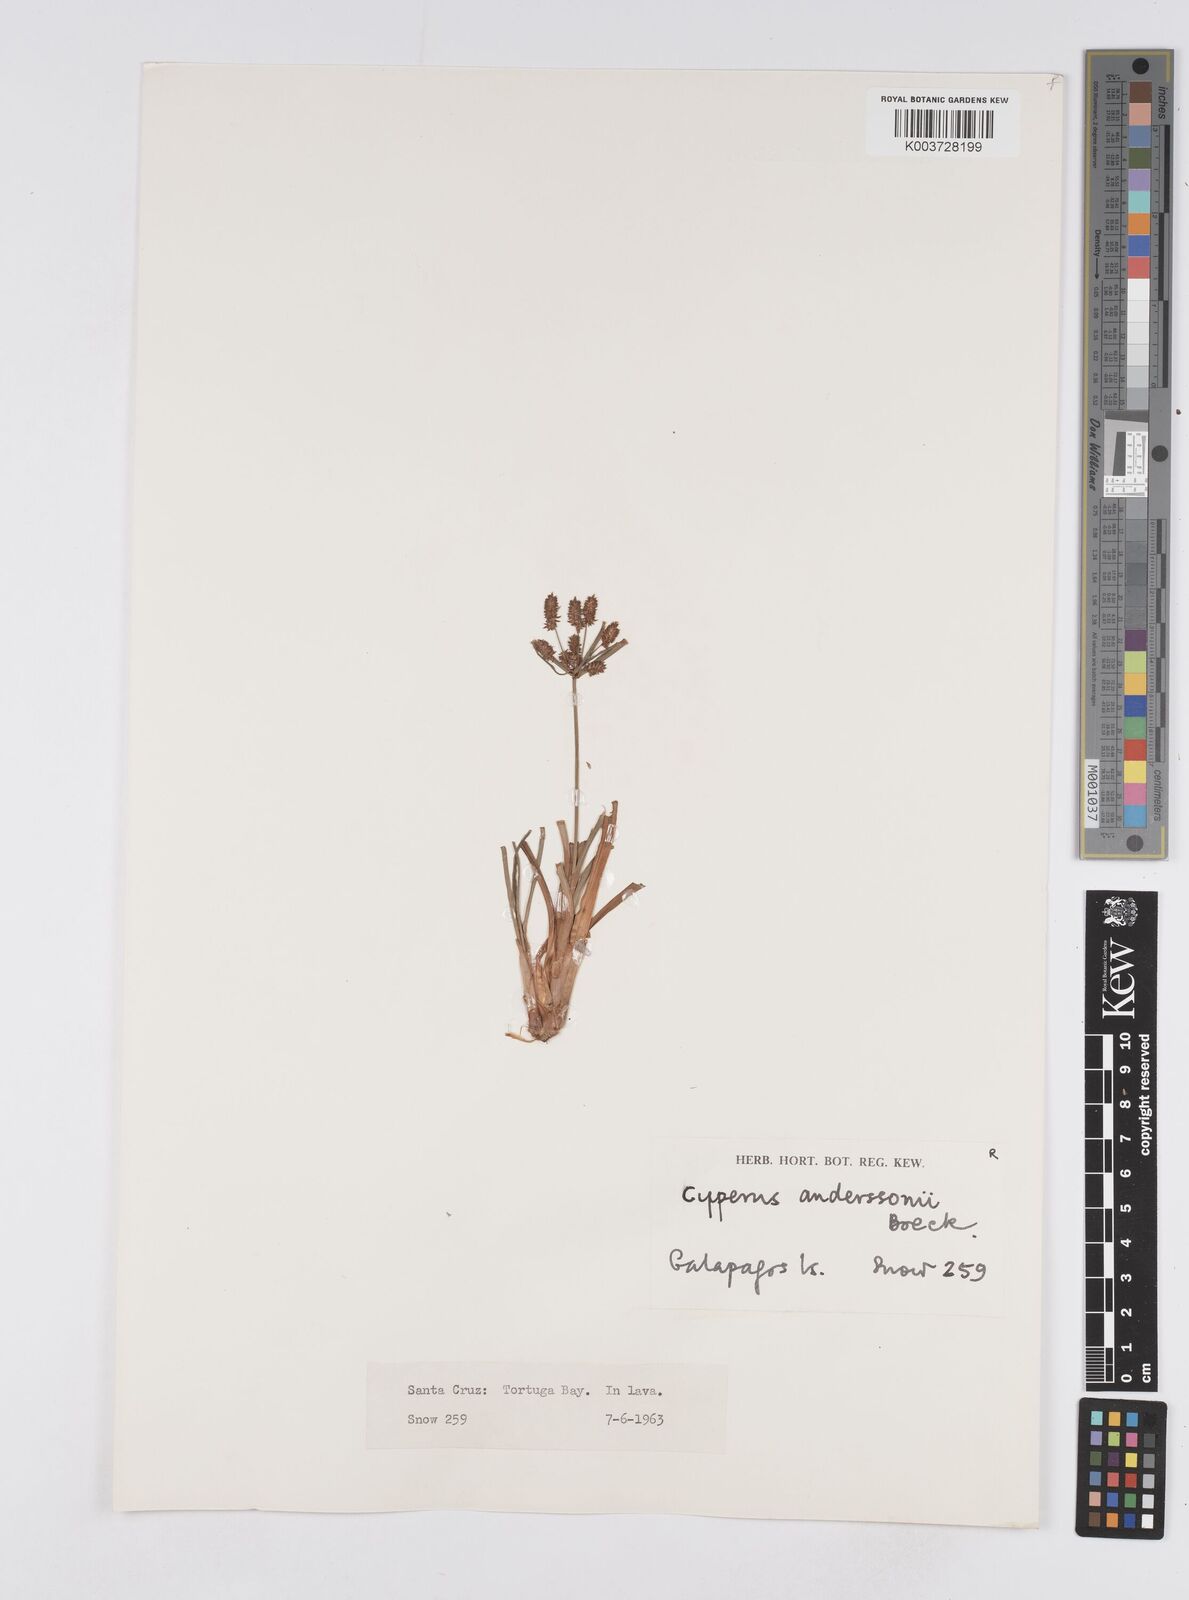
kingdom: Plantae
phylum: Tracheophyta
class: Liliopsida
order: Poales
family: Cyperaceae
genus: Cyperus
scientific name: Cyperus anderssonii
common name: Andersson's sedge
